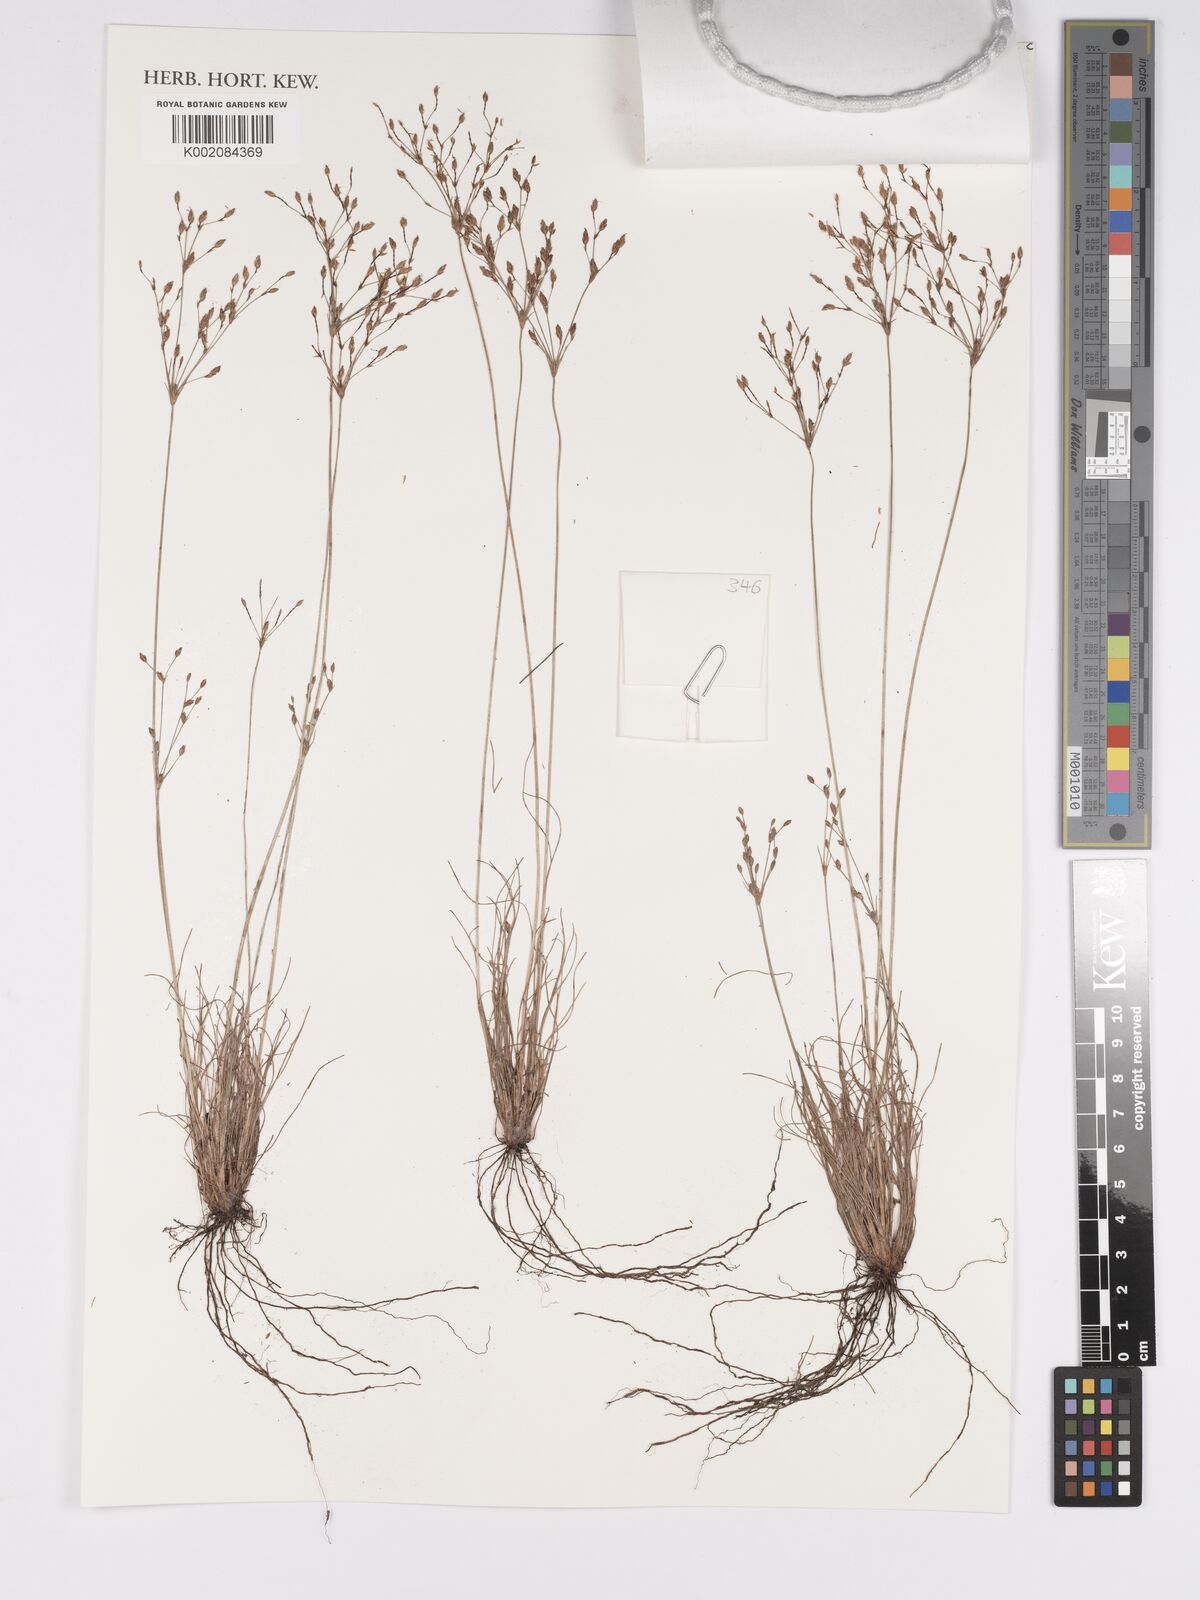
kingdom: Plantae
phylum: Tracheophyta
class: Liliopsida
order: Poales
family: Cyperaceae
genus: Bulbostylis
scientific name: Bulbostylis
